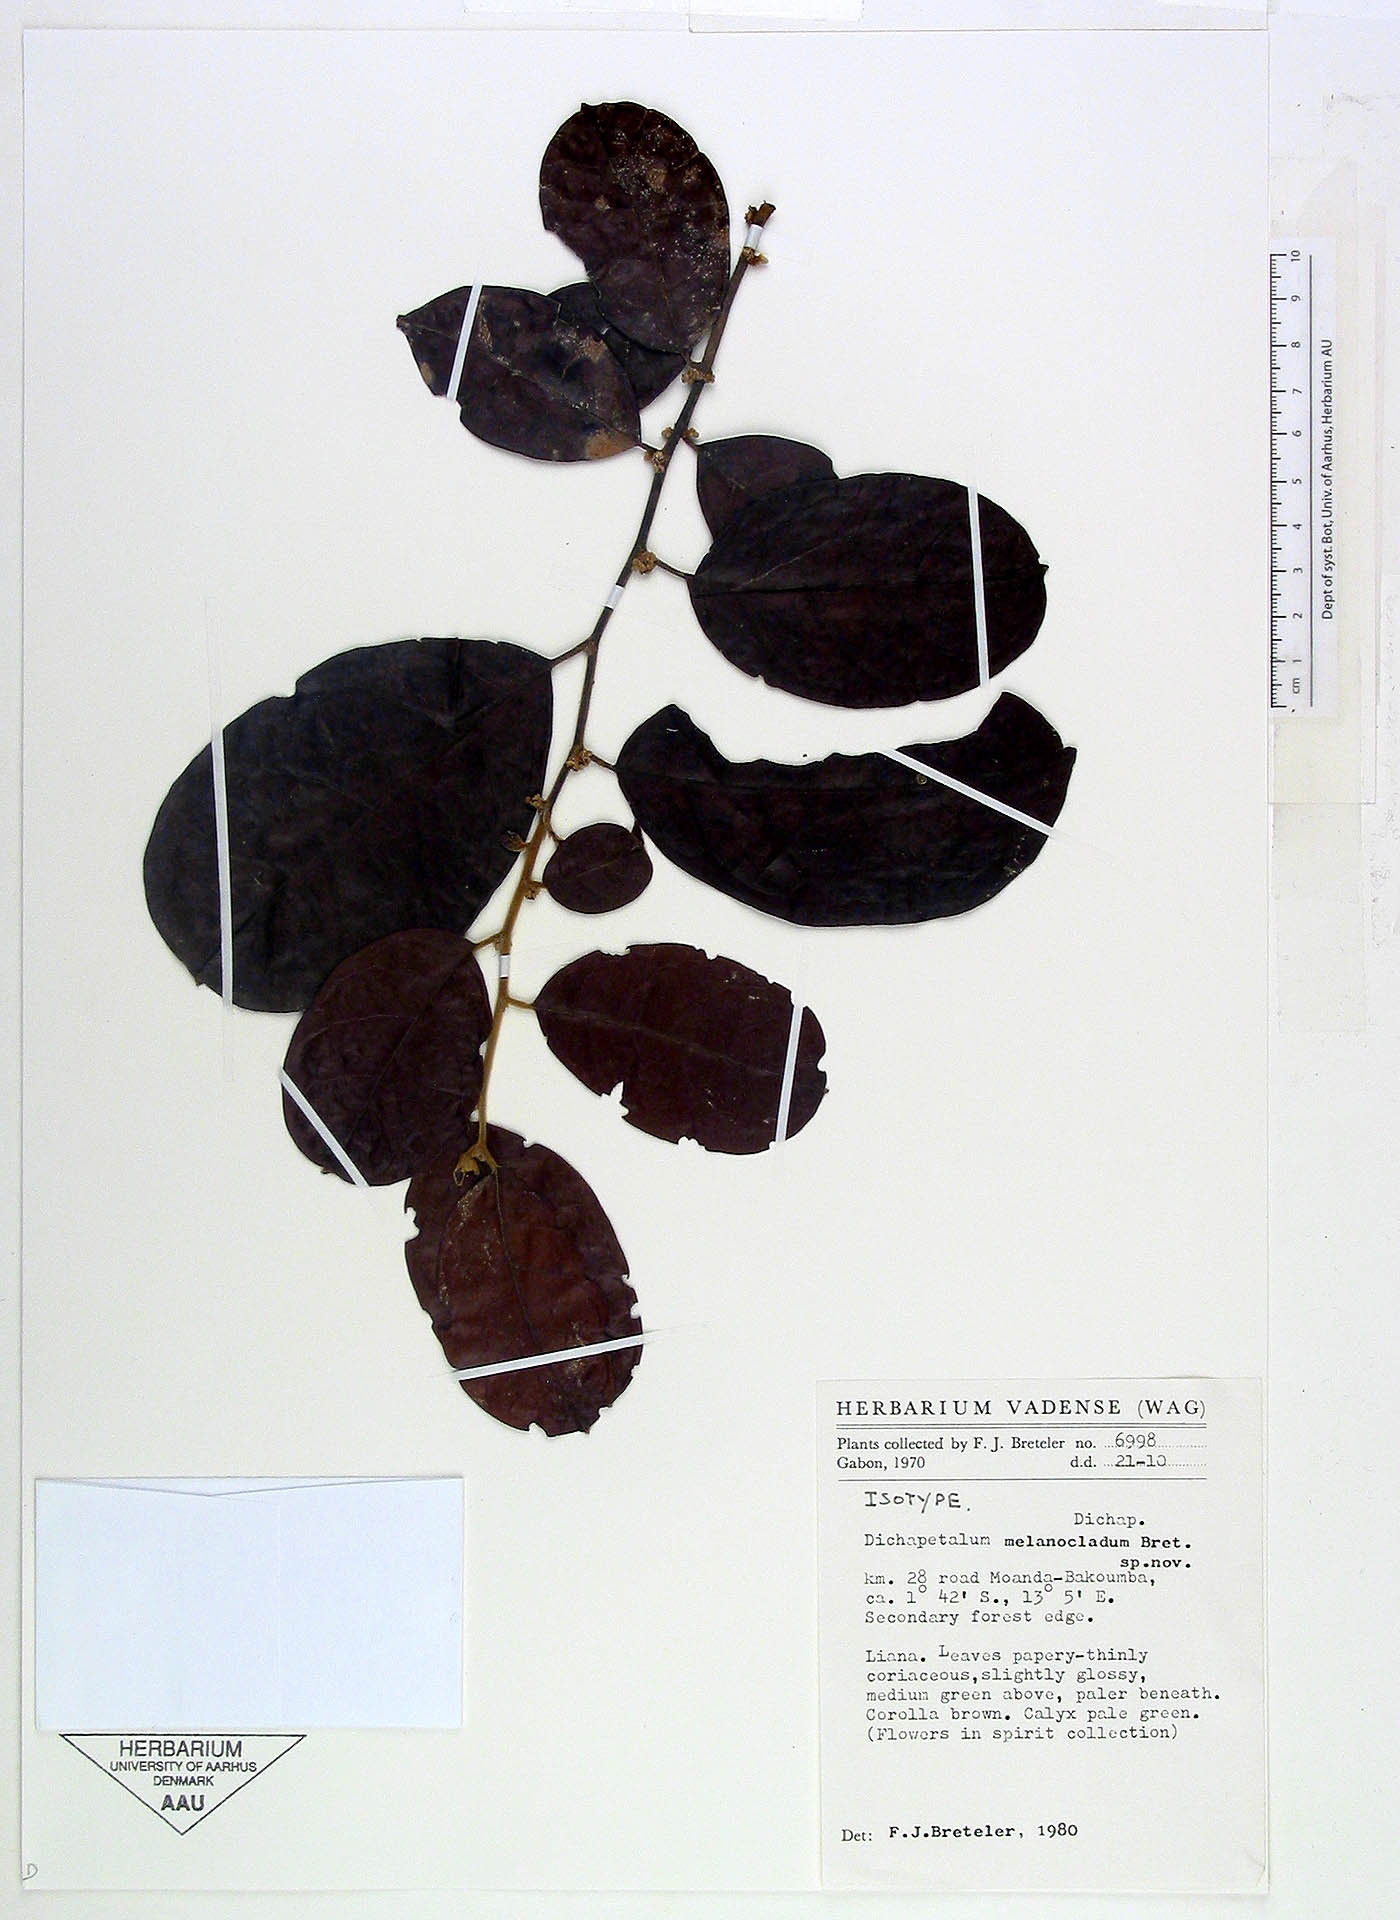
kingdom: Plantae
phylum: Tracheophyta
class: Magnoliopsida
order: Malpighiales
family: Dichapetalaceae
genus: Dichapetalum
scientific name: Dichapetalum melanocladum
